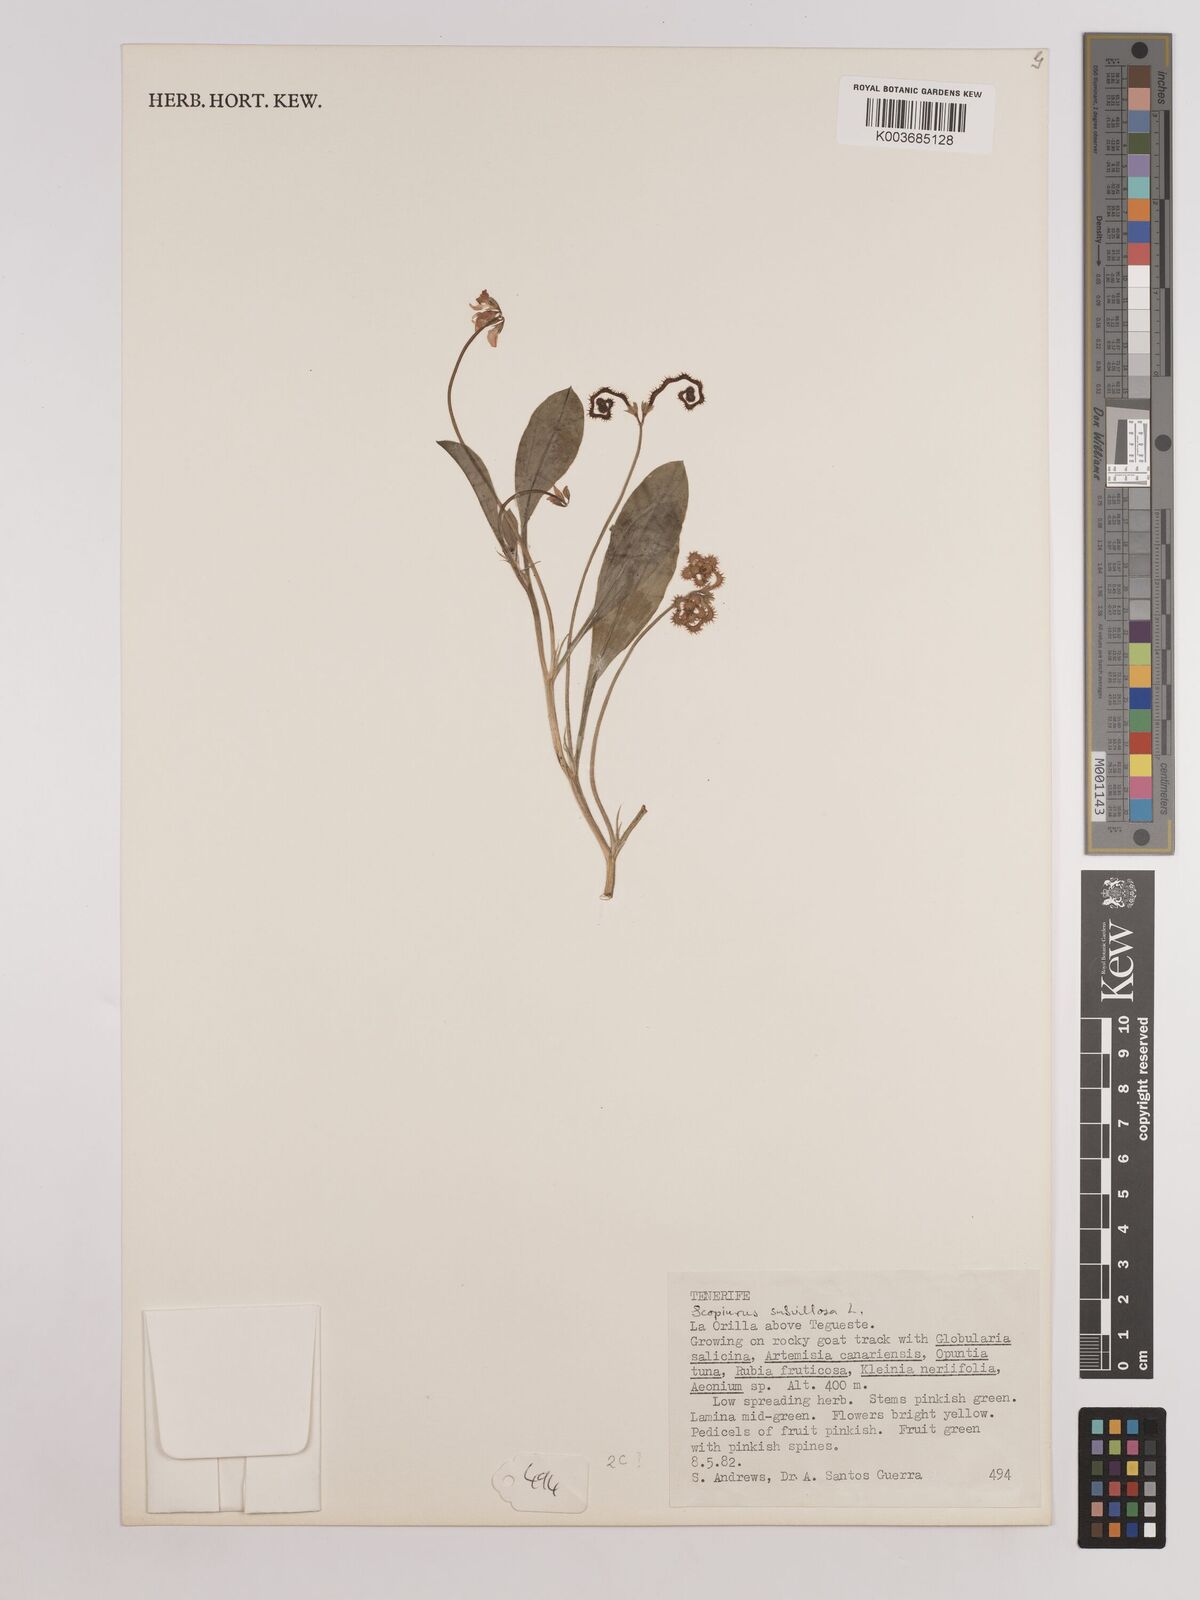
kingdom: Plantae
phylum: Tracheophyta
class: Magnoliopsida
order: Fabales
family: Fabaceae
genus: Scorpiurus
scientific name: Scorpiurus muricatus
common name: Caterpillar-plant
